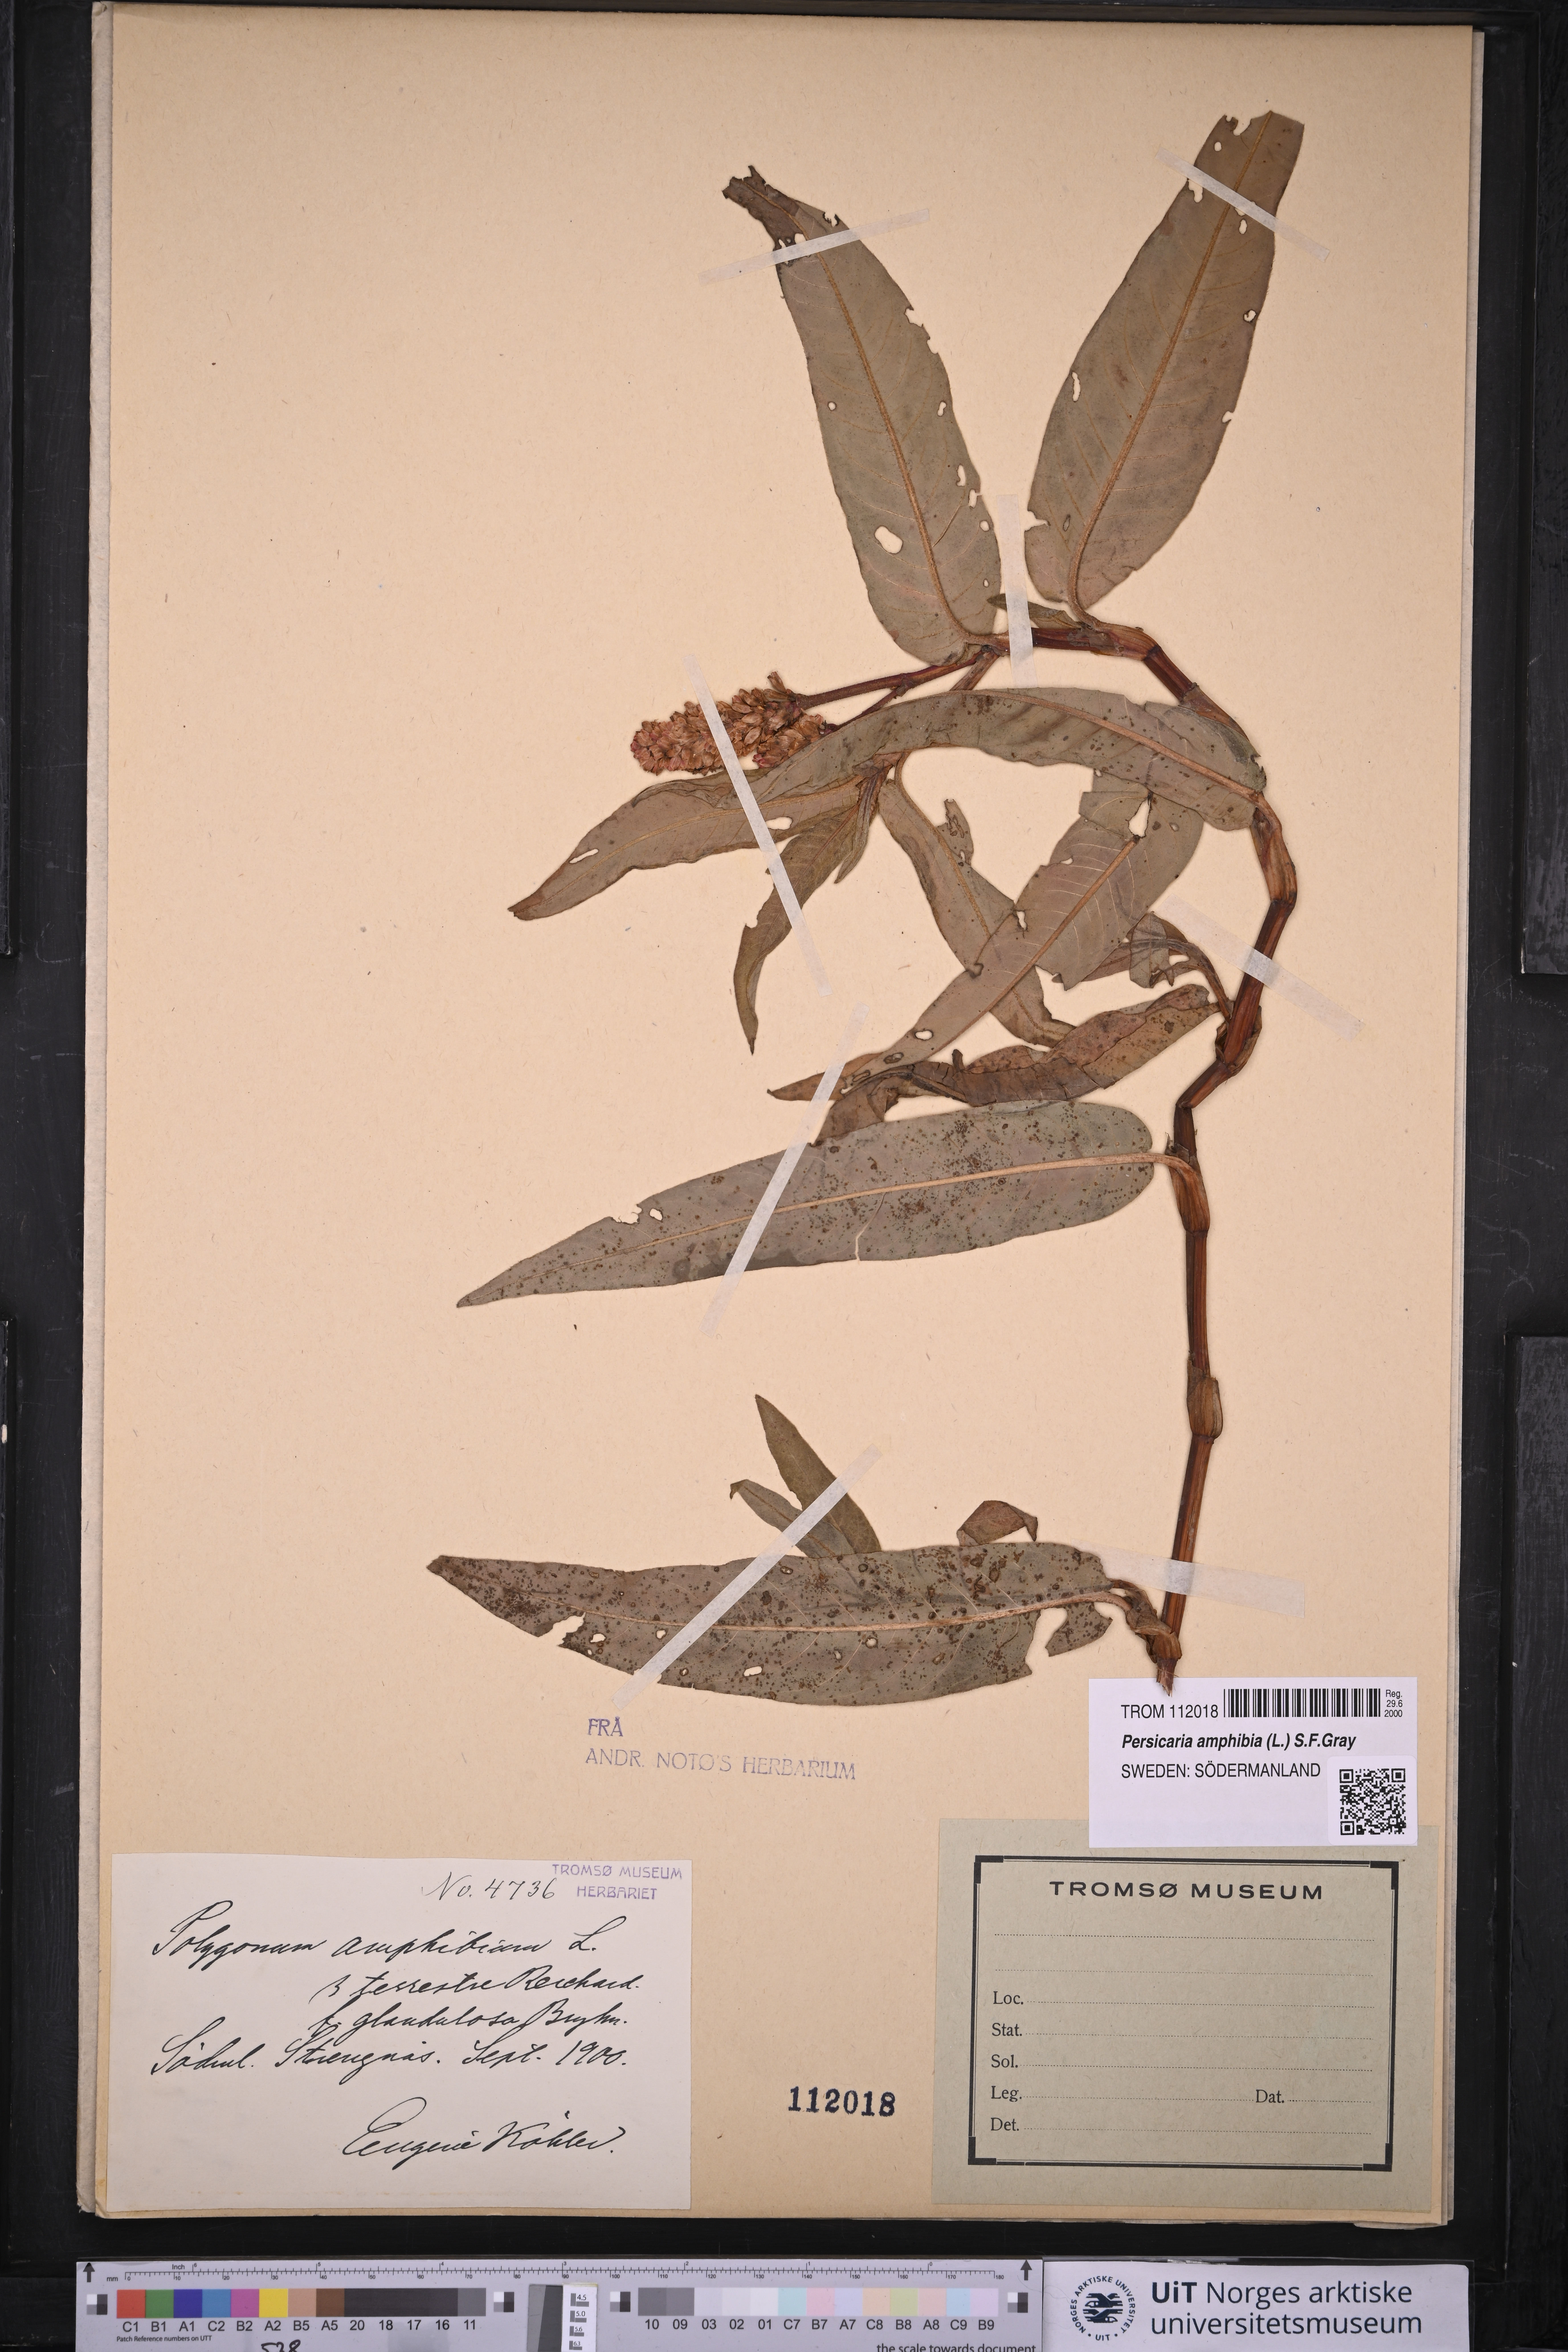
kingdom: Plantae
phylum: Tracheophyta
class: Magnoliopsida
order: Caryophyllales
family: Polygonaceae
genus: Persicaria
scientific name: Persicaria amphibia
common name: Amphibious bistort
